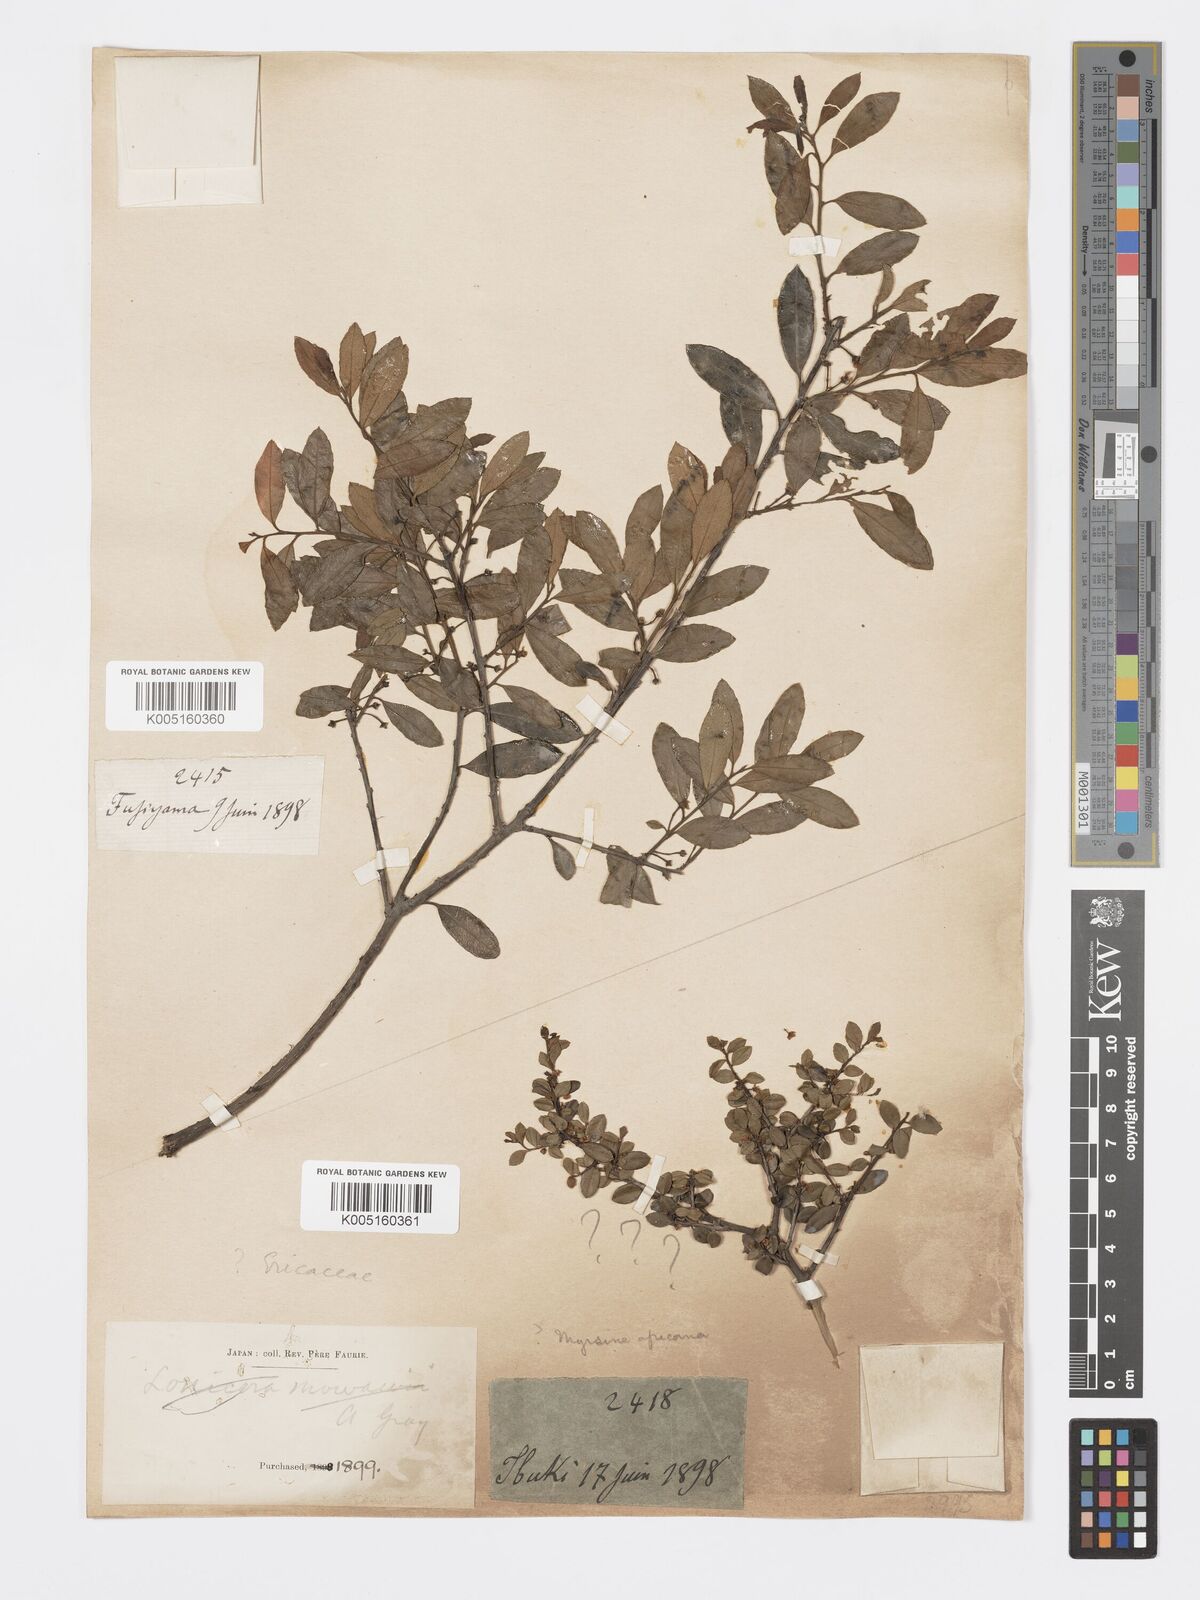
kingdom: Plantae
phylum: Tracheophyta
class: Magnoliopsida
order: Celastrales
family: Celastraceae
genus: Euonymus
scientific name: Euonymus
